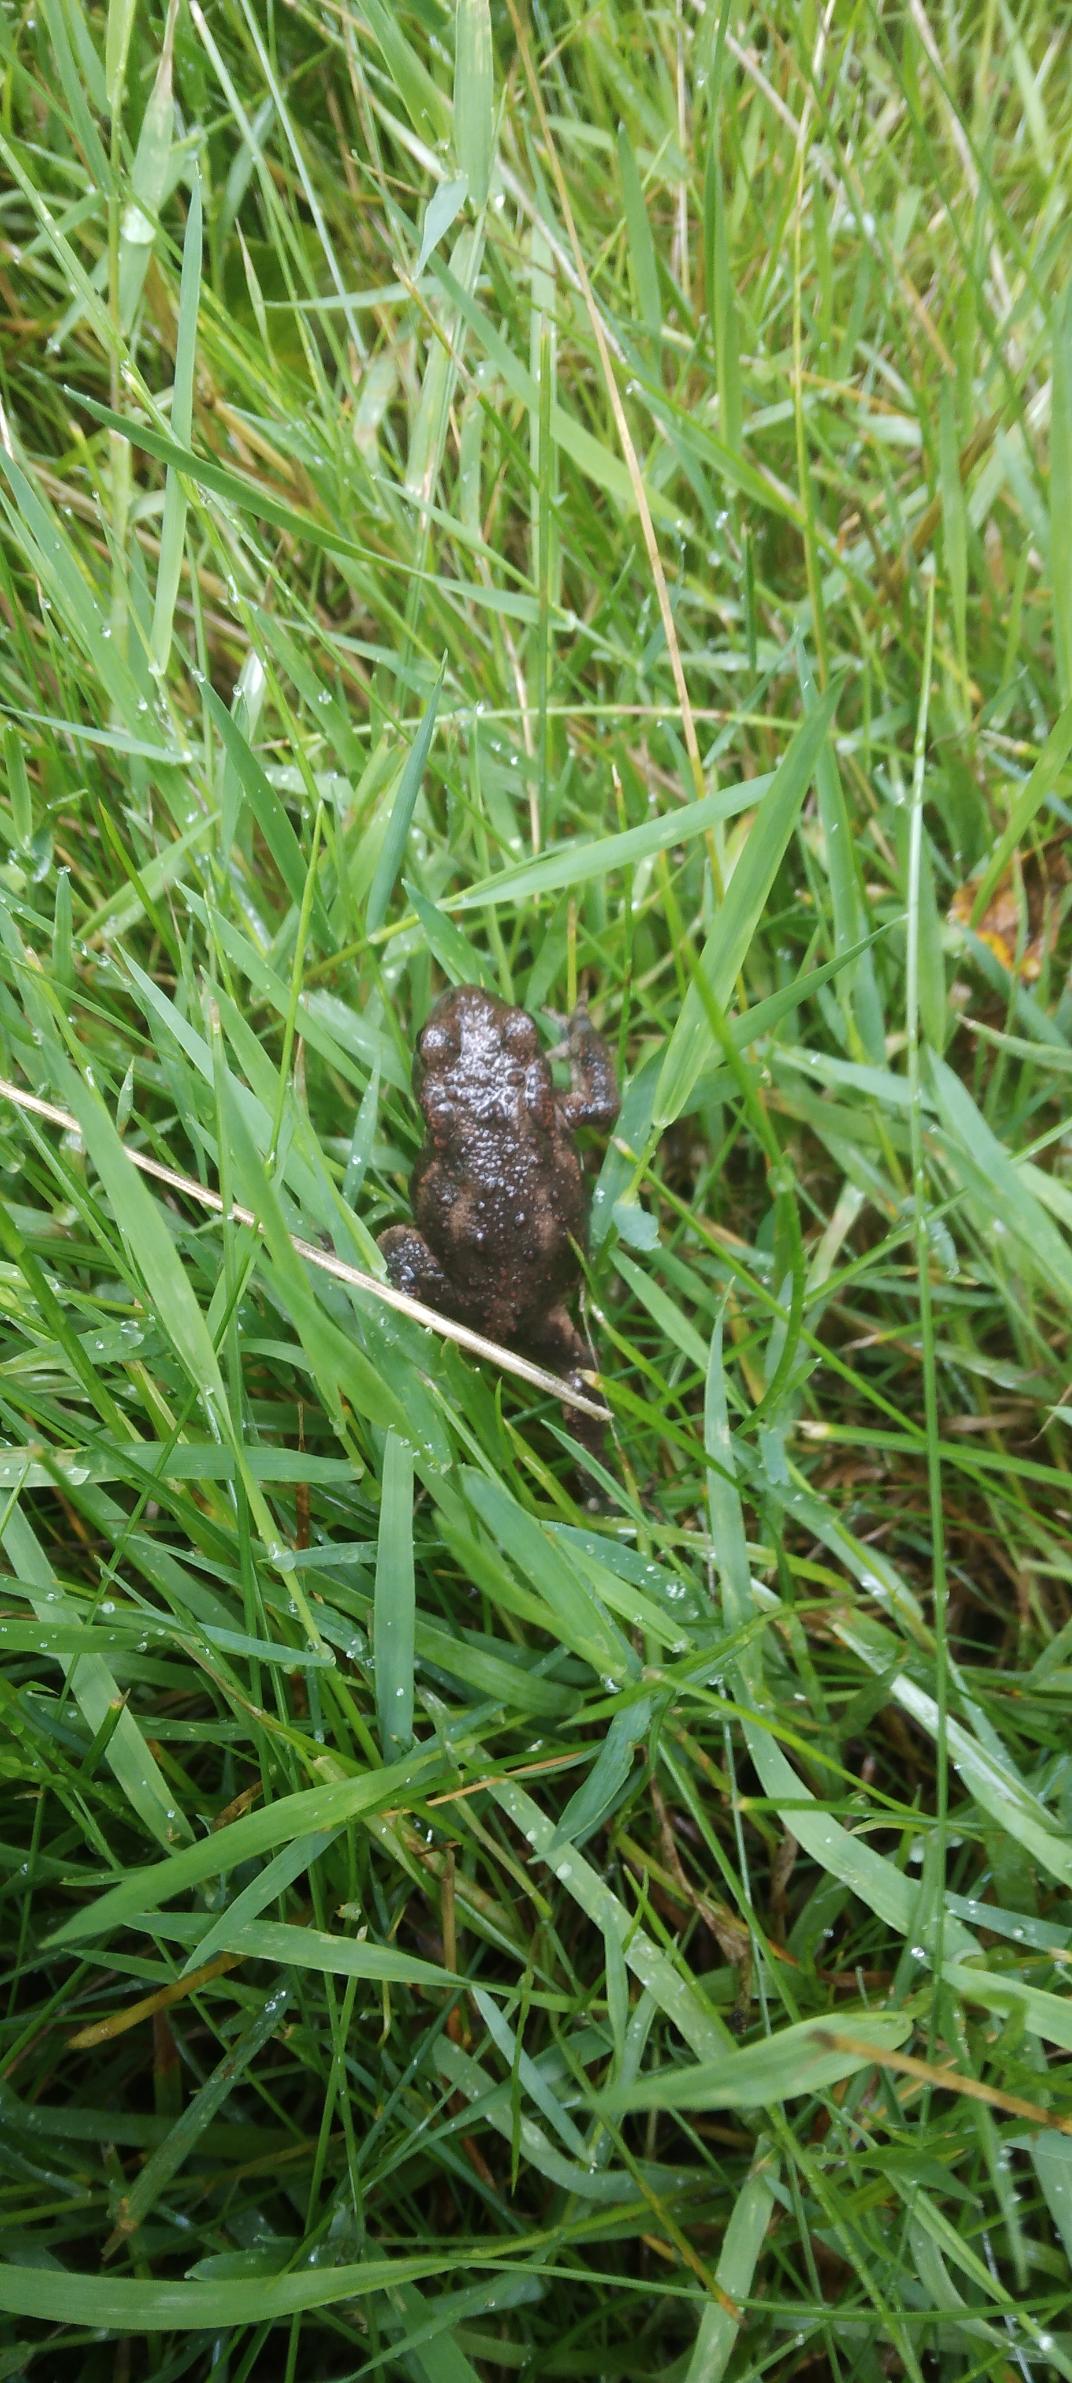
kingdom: Animalia
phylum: Chordata
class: Amphibia
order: Anura
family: Bufonidae
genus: Bufo
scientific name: Bufo bufo
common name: Skrubtudse
